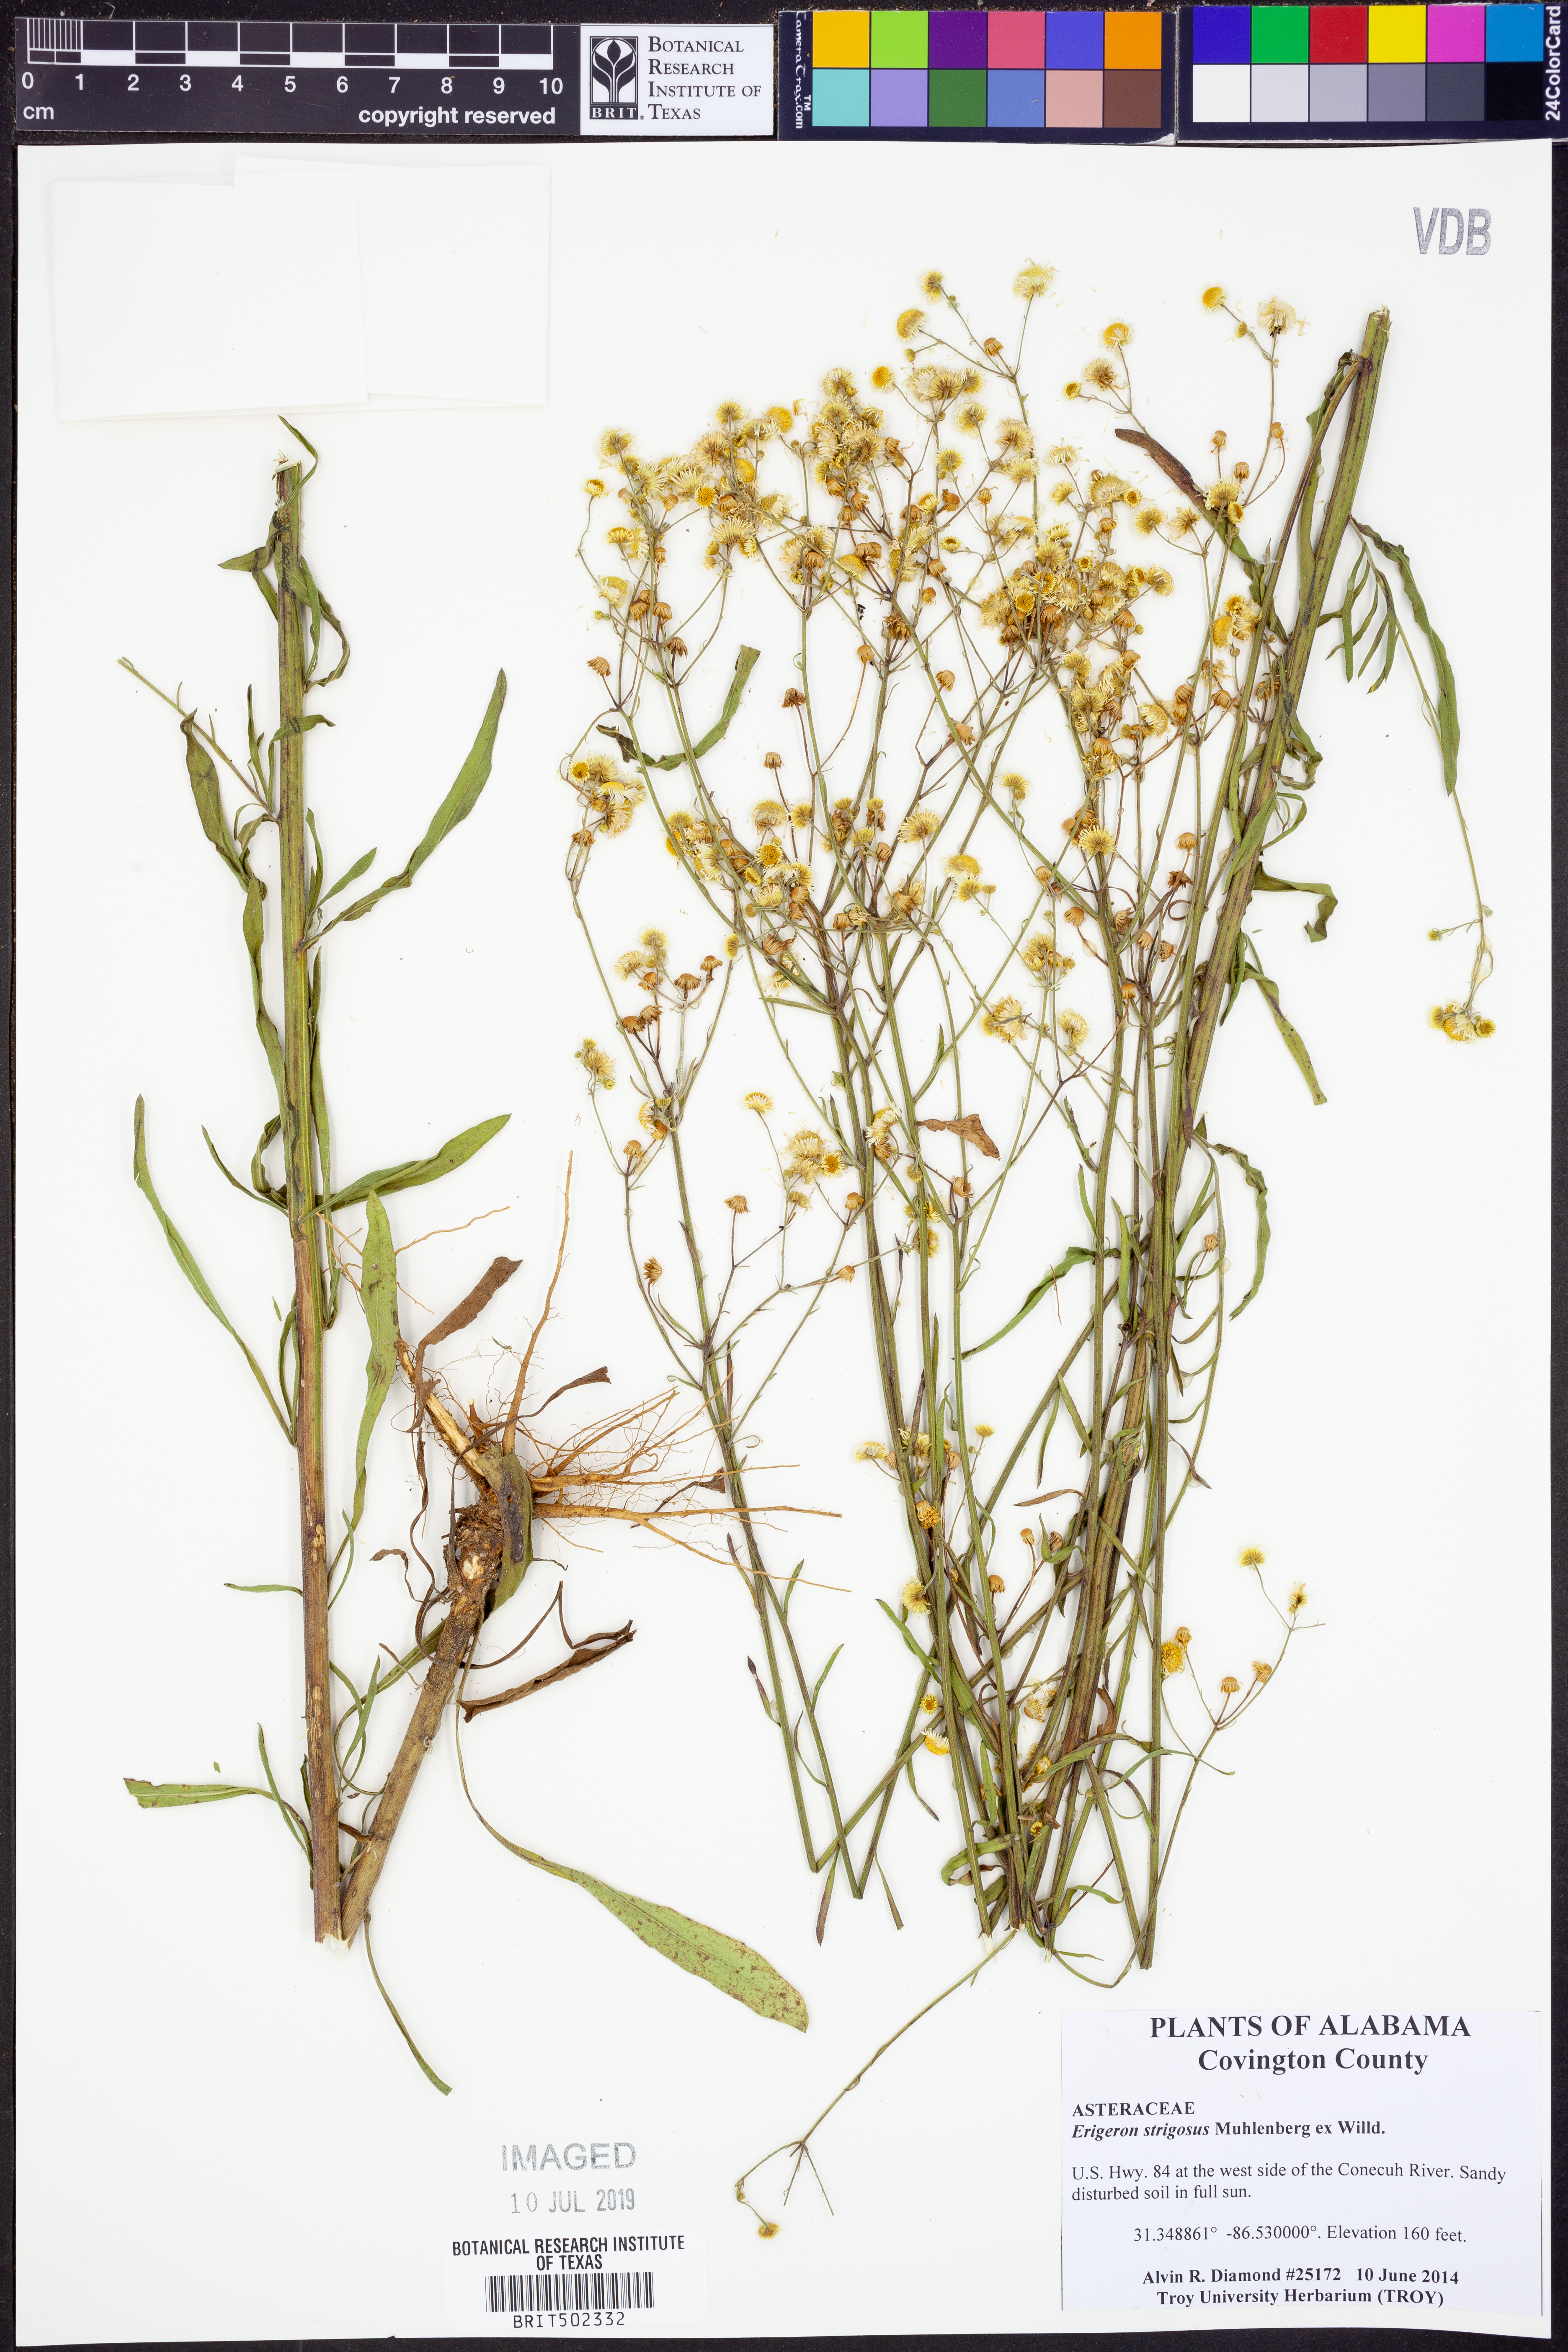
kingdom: Plantae
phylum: Tracheophyta
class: Magnoliopsida
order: Asterales
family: Asteraceae
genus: Erigeron
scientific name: Erigeron strigosus
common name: Common eastern fleabane
